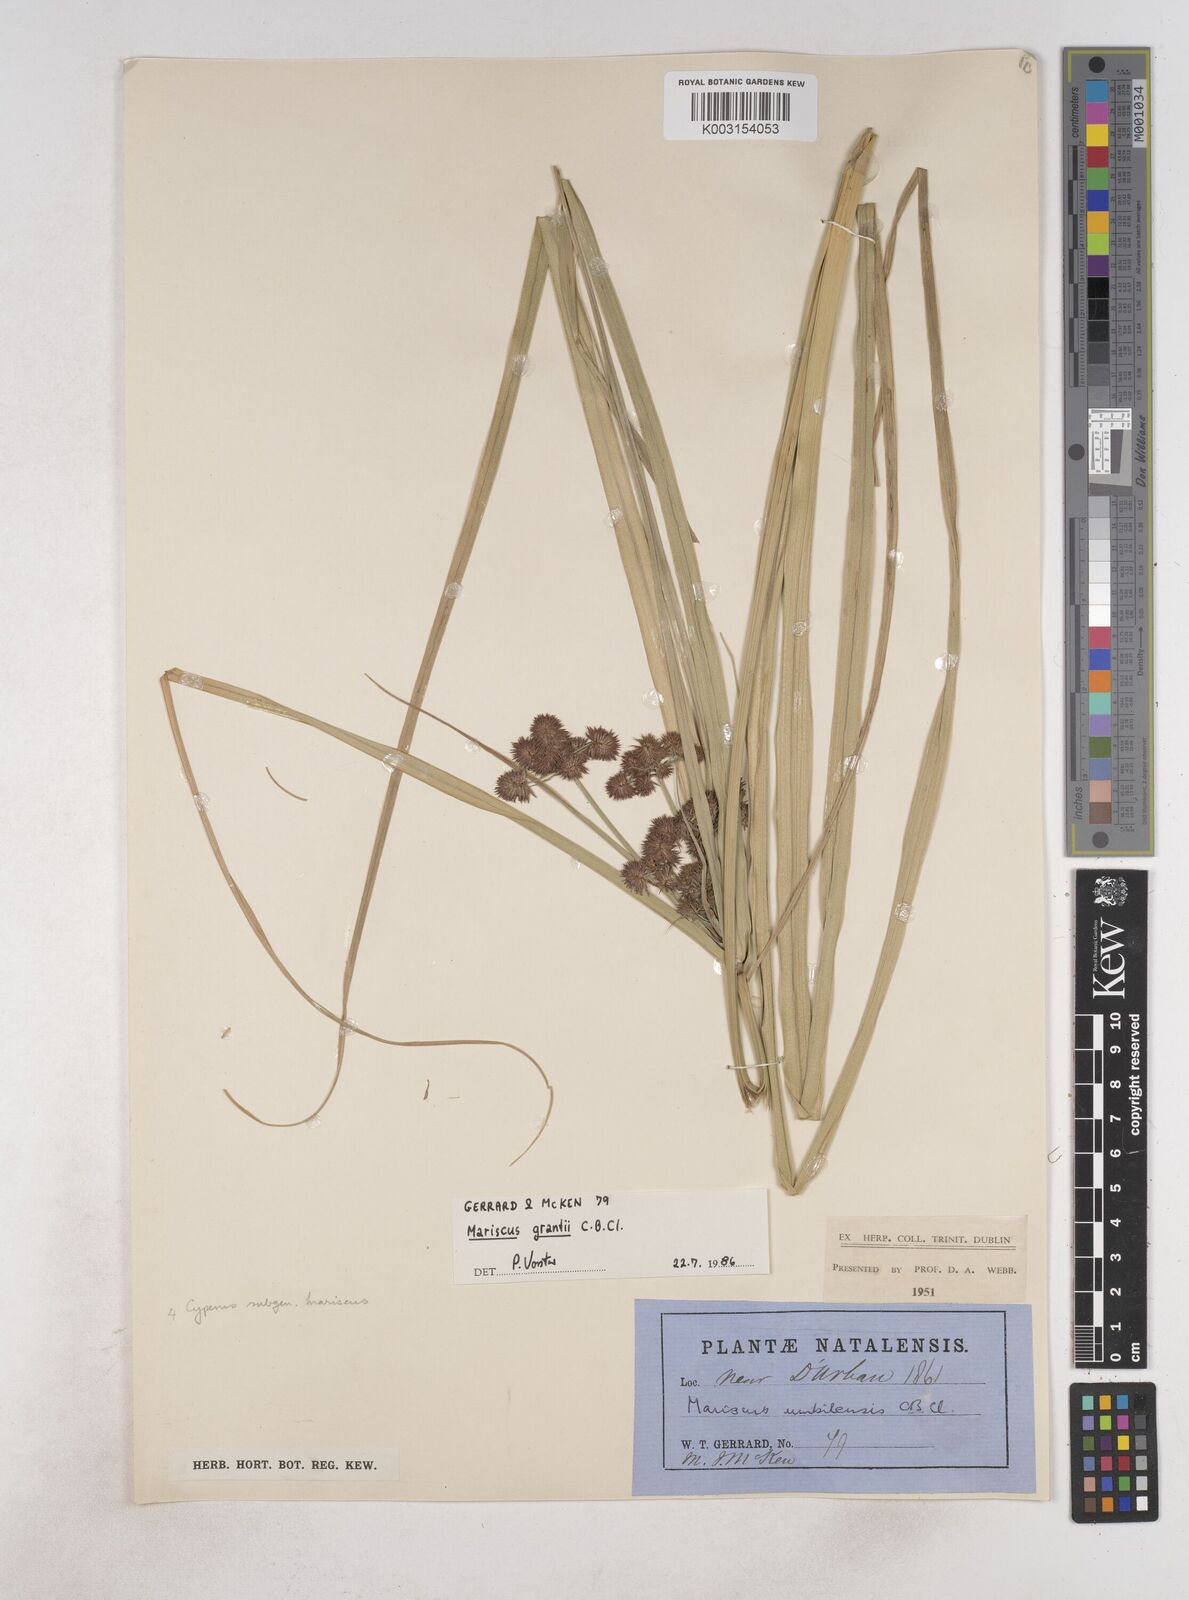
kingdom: Plantae
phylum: Tracheophyta
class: Liliopsida
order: Poales
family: Cyperaceae
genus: Cyperus
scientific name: Cyperus owanii
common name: Owan's flatsedge
